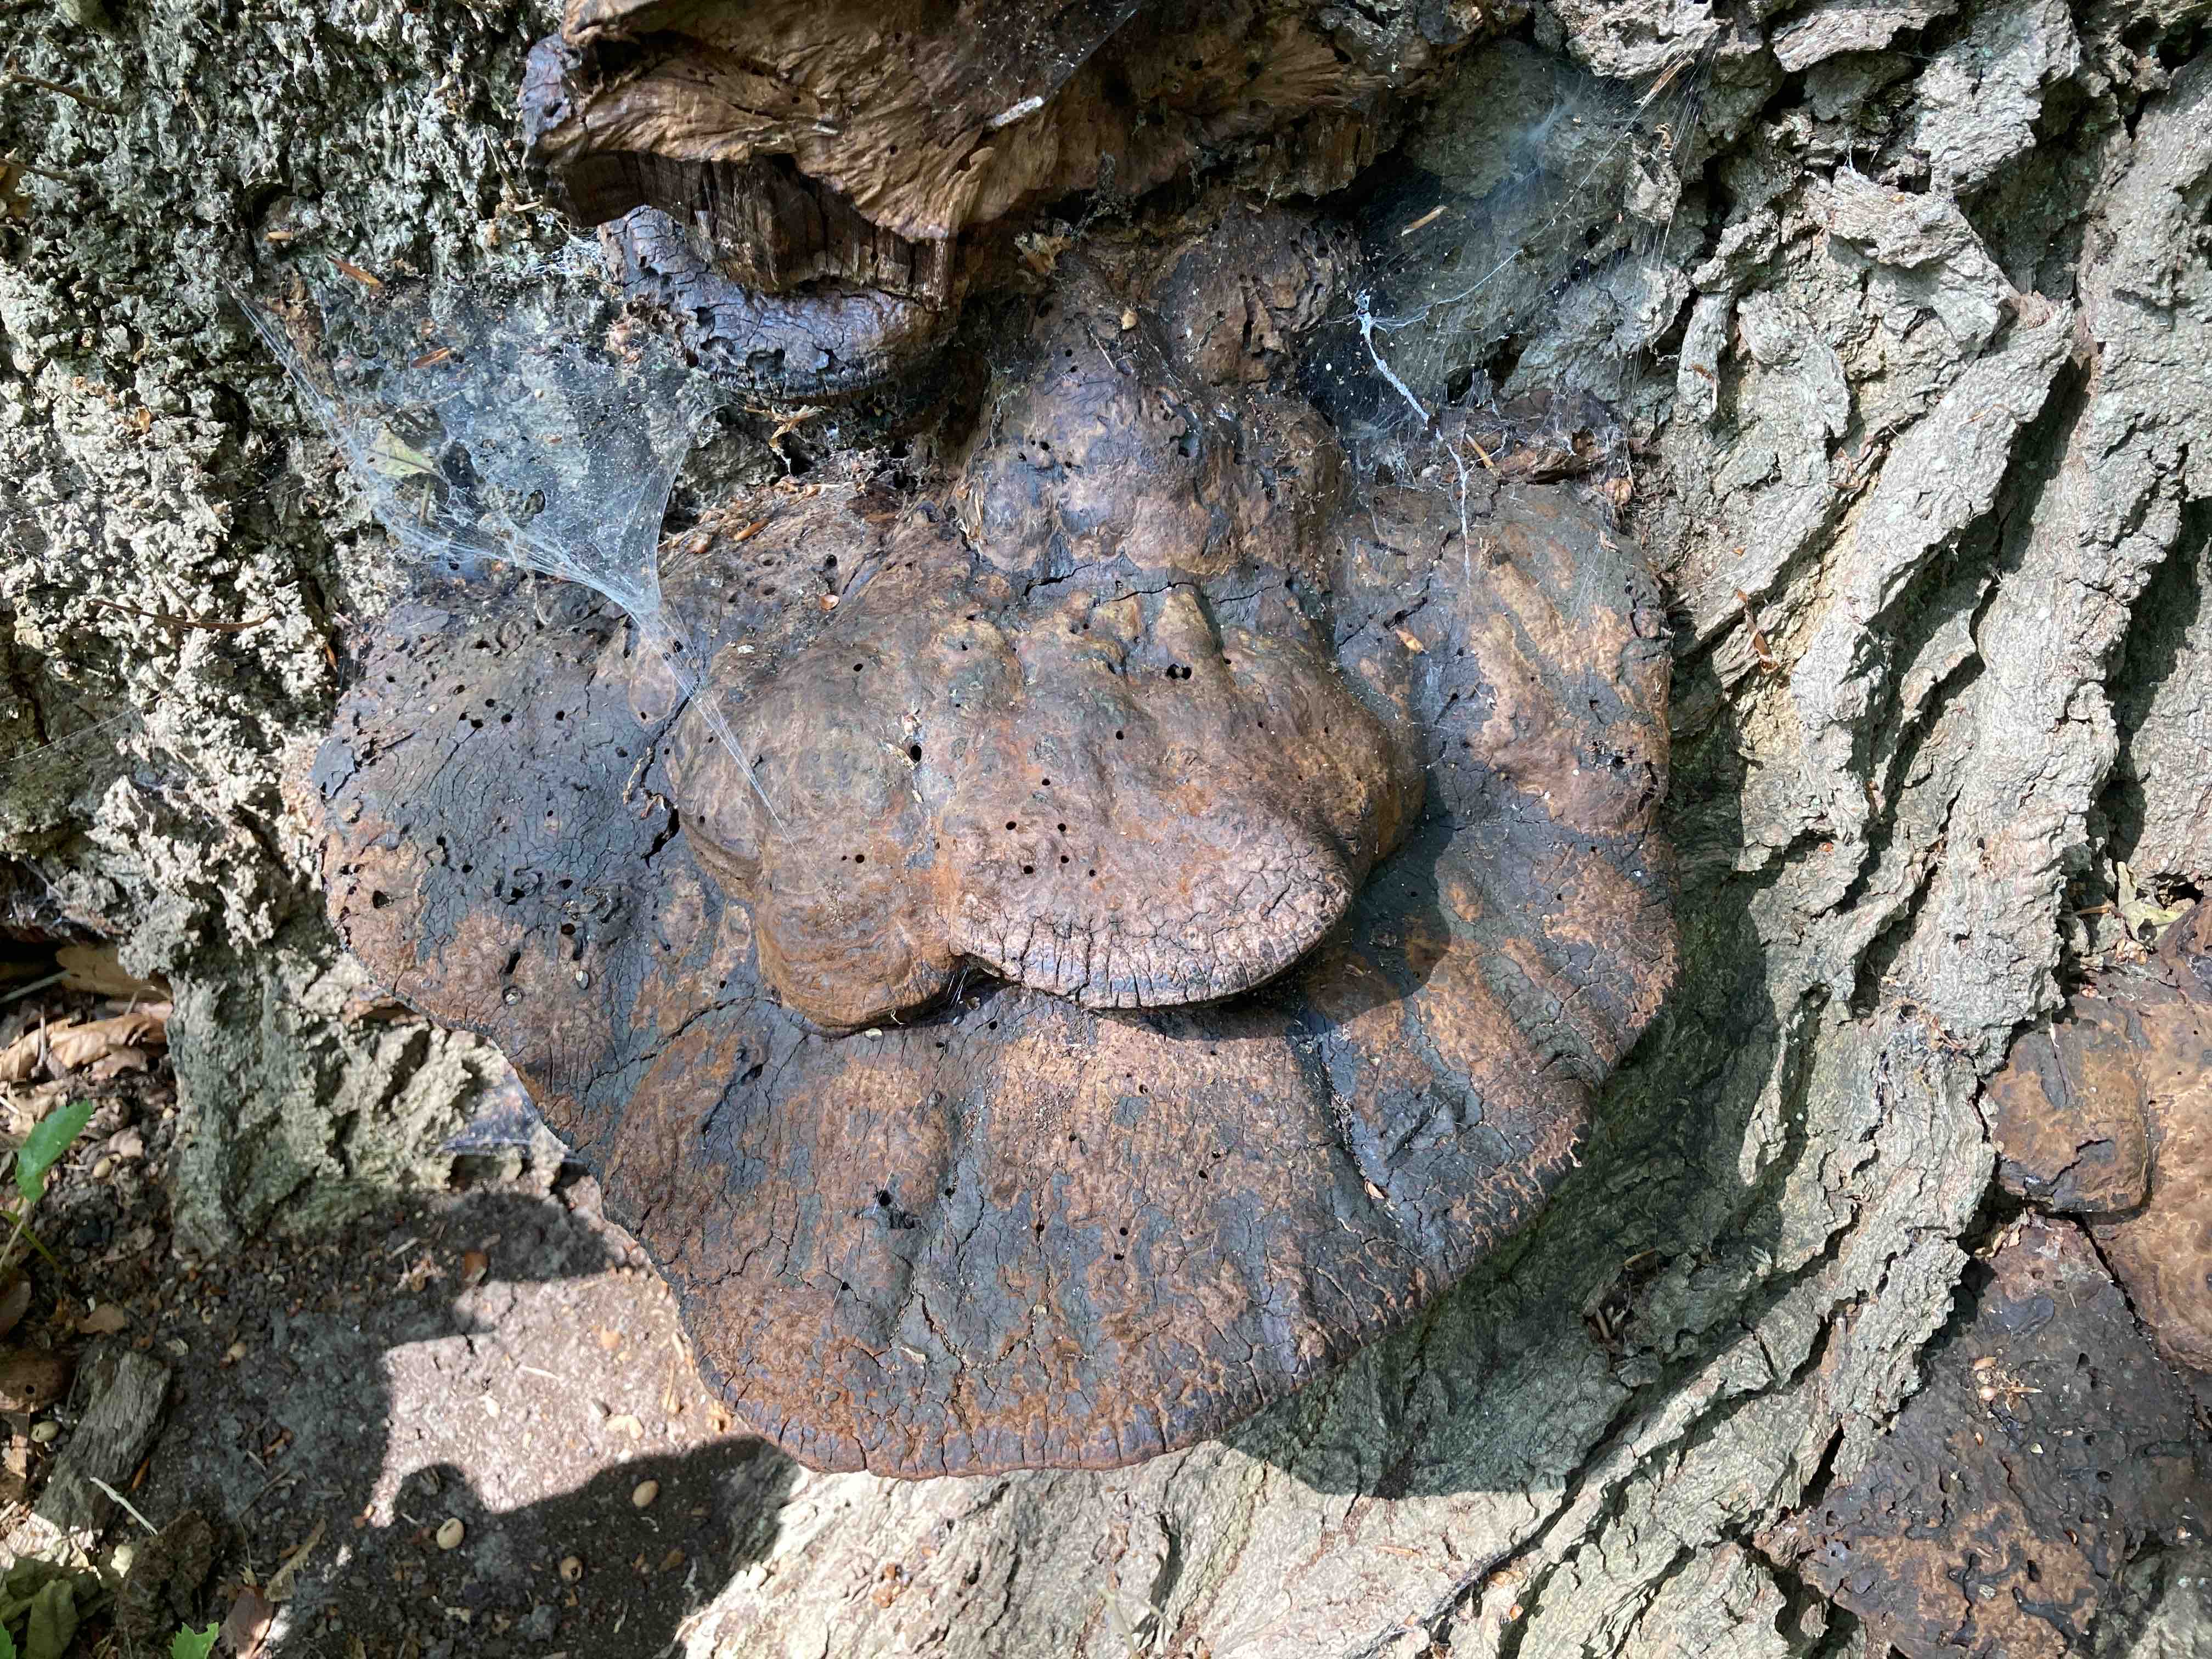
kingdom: Fungi
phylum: Basidiomycota
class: Agaricomycetes
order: Hymenochaetales
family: Hymenochaetaceae
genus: Pseudoinonotus
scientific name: Pseudoinonotus dryadeus
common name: ege-spejlporesvamp
